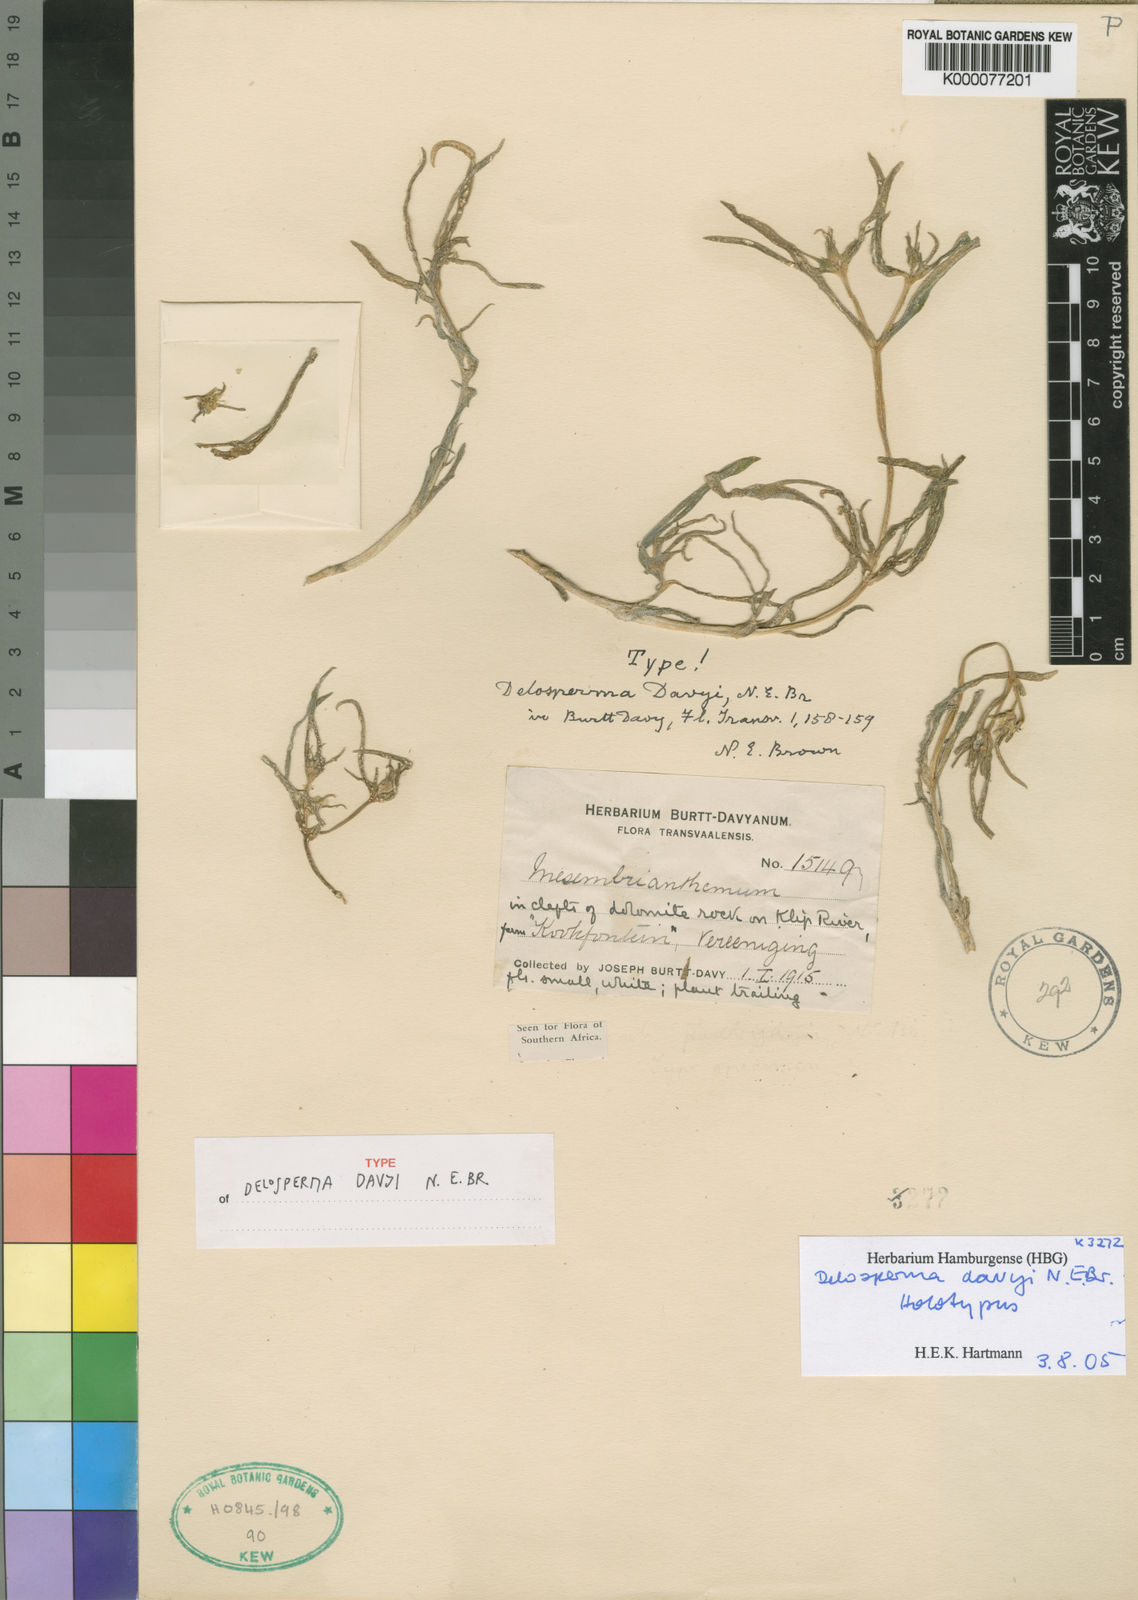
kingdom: Plantae
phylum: Tracheophyta
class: Magnoliopsida
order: Caryophyllales
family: Aizoaceae
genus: Delosperma
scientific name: Delosperma davyi
